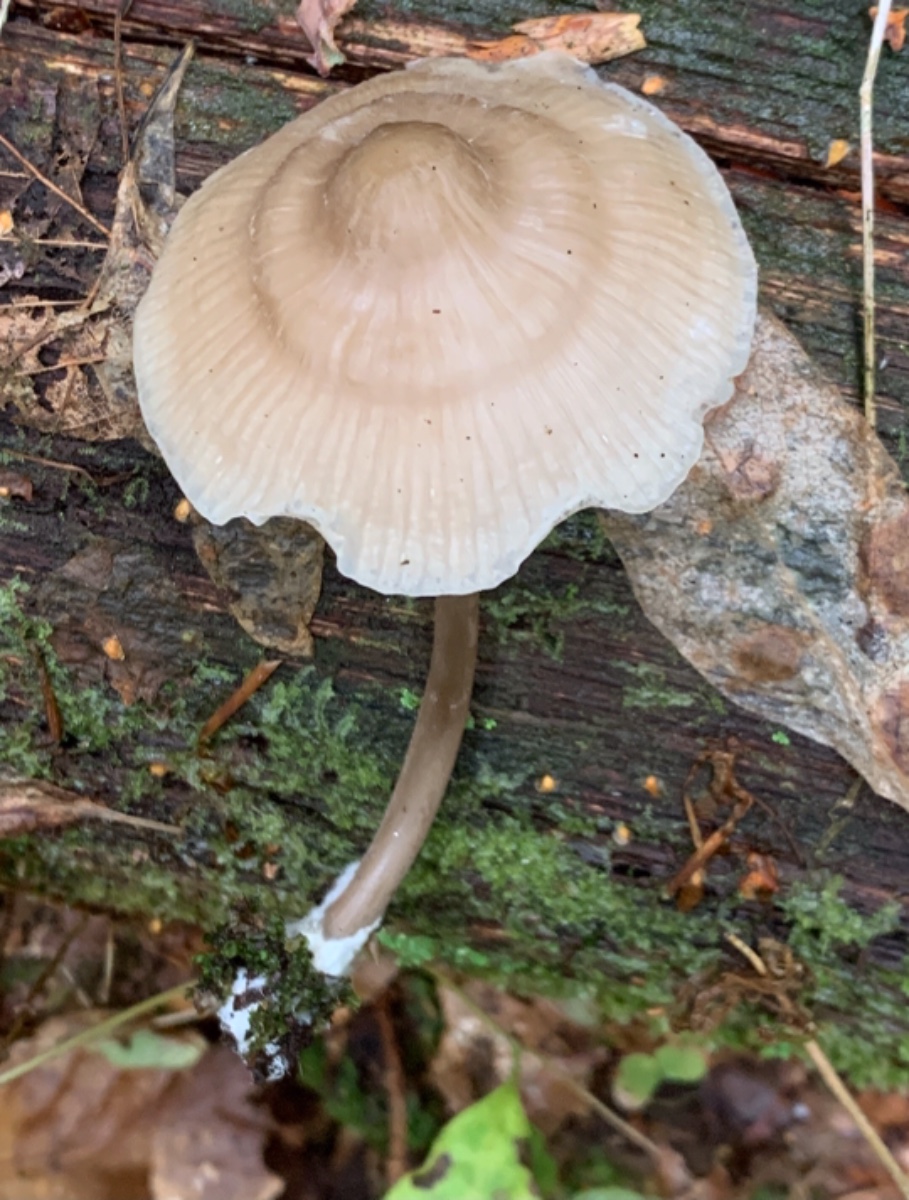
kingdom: Fungi
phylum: Basidiomycota
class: Agaricomycetes
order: Agaricales
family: Mycenaceae
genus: Mycena
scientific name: Mycena galericulata
